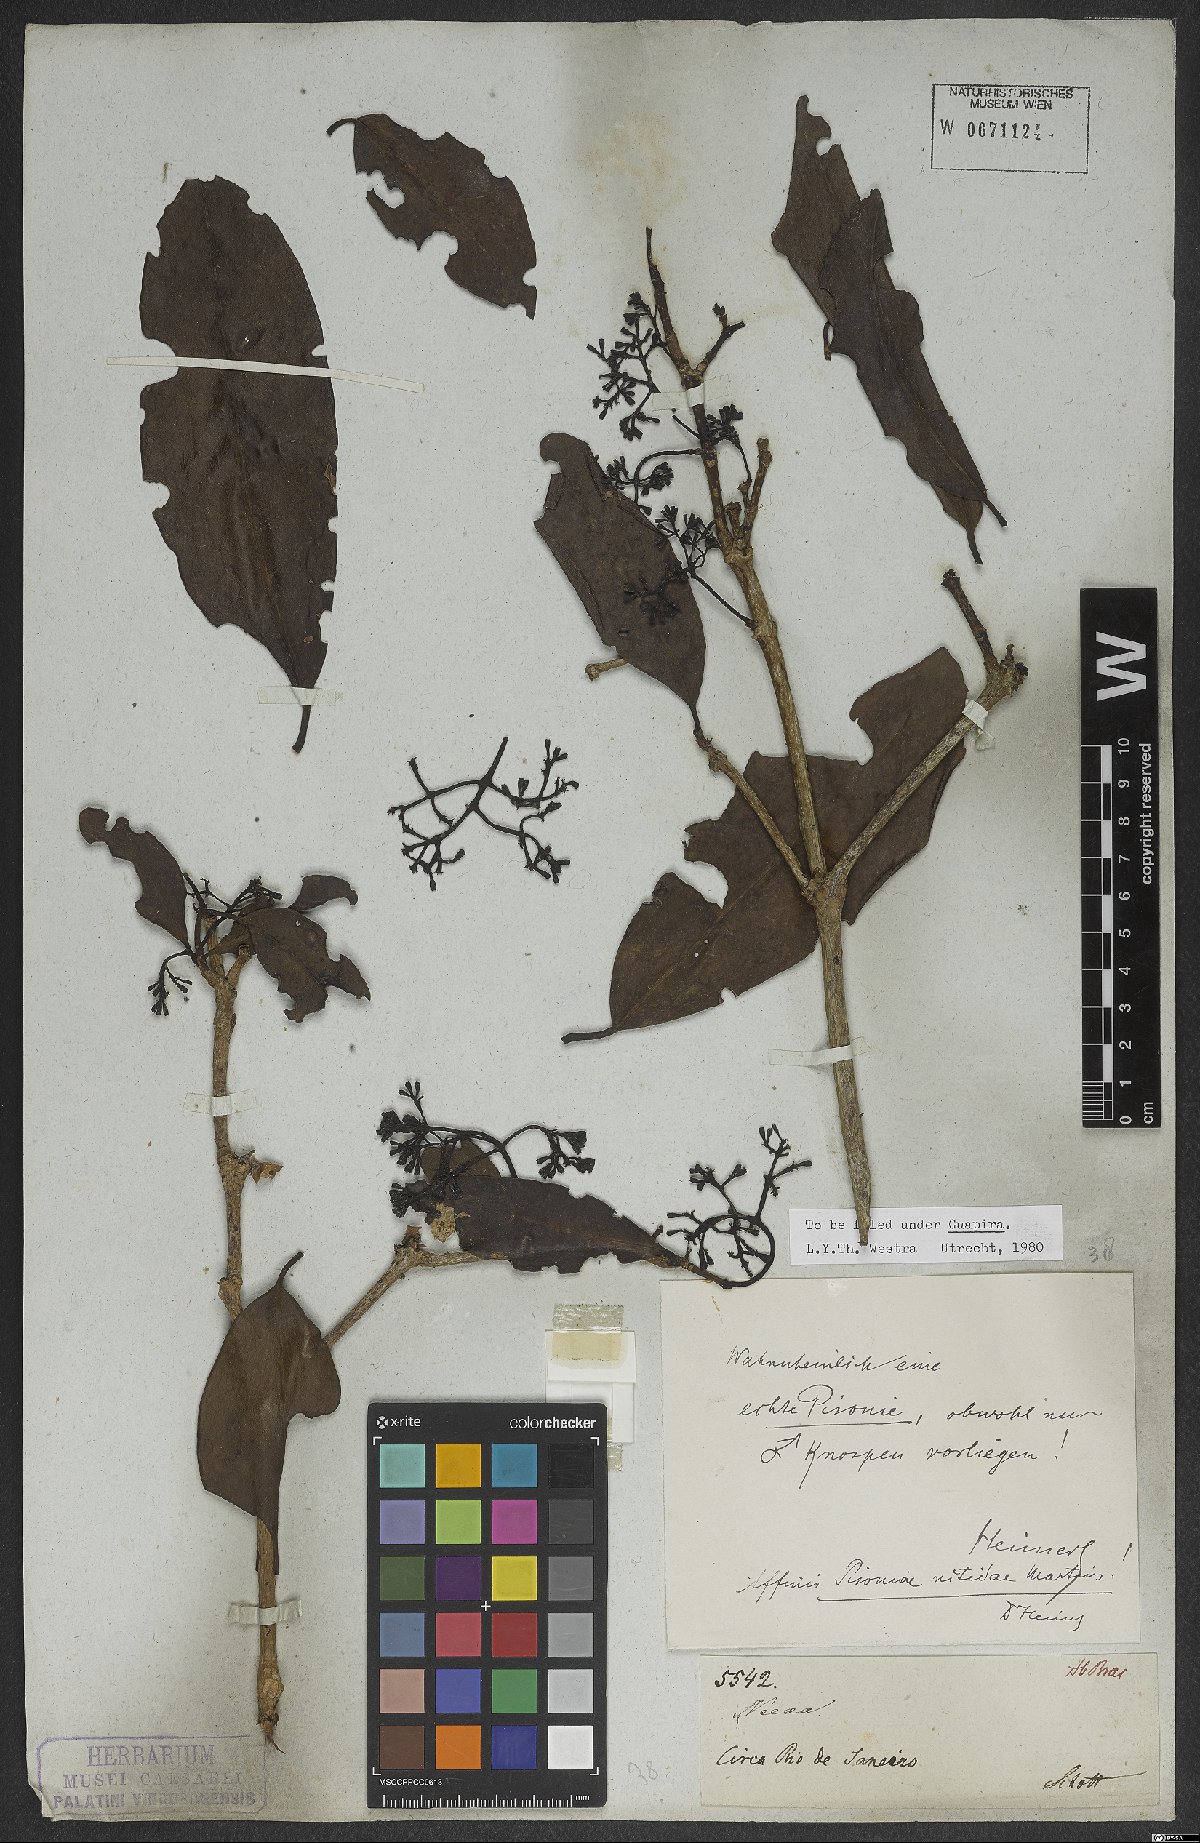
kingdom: Plantae
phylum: Tracheophyta
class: Magnoliopsida
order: Caryophyllales
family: Nyctaginaceae
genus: Guapira
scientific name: Guapira
